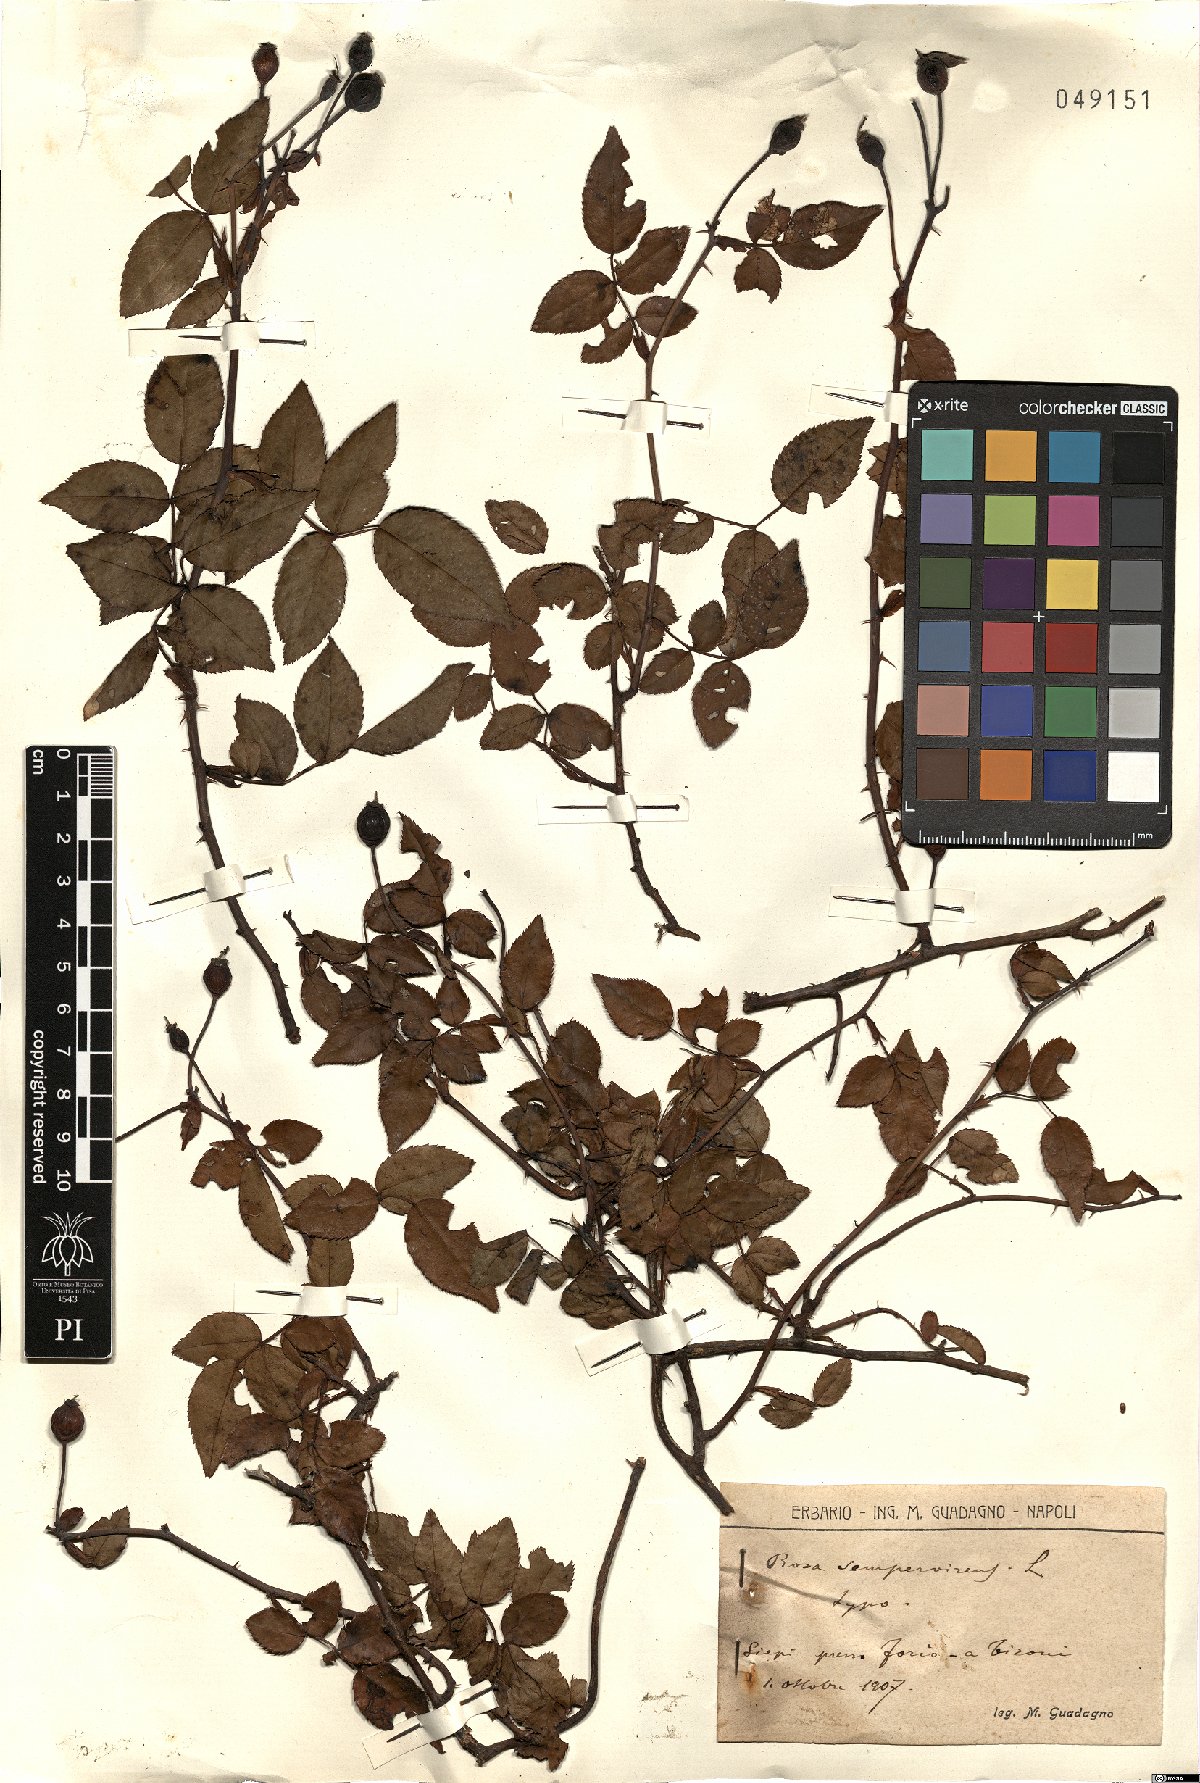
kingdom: Plantae
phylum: Tracheophyta
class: Magnoliopsida
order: Rosales
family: Rosaceae
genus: Rosa
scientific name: Rosa sempervirens
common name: Evergreen rose
